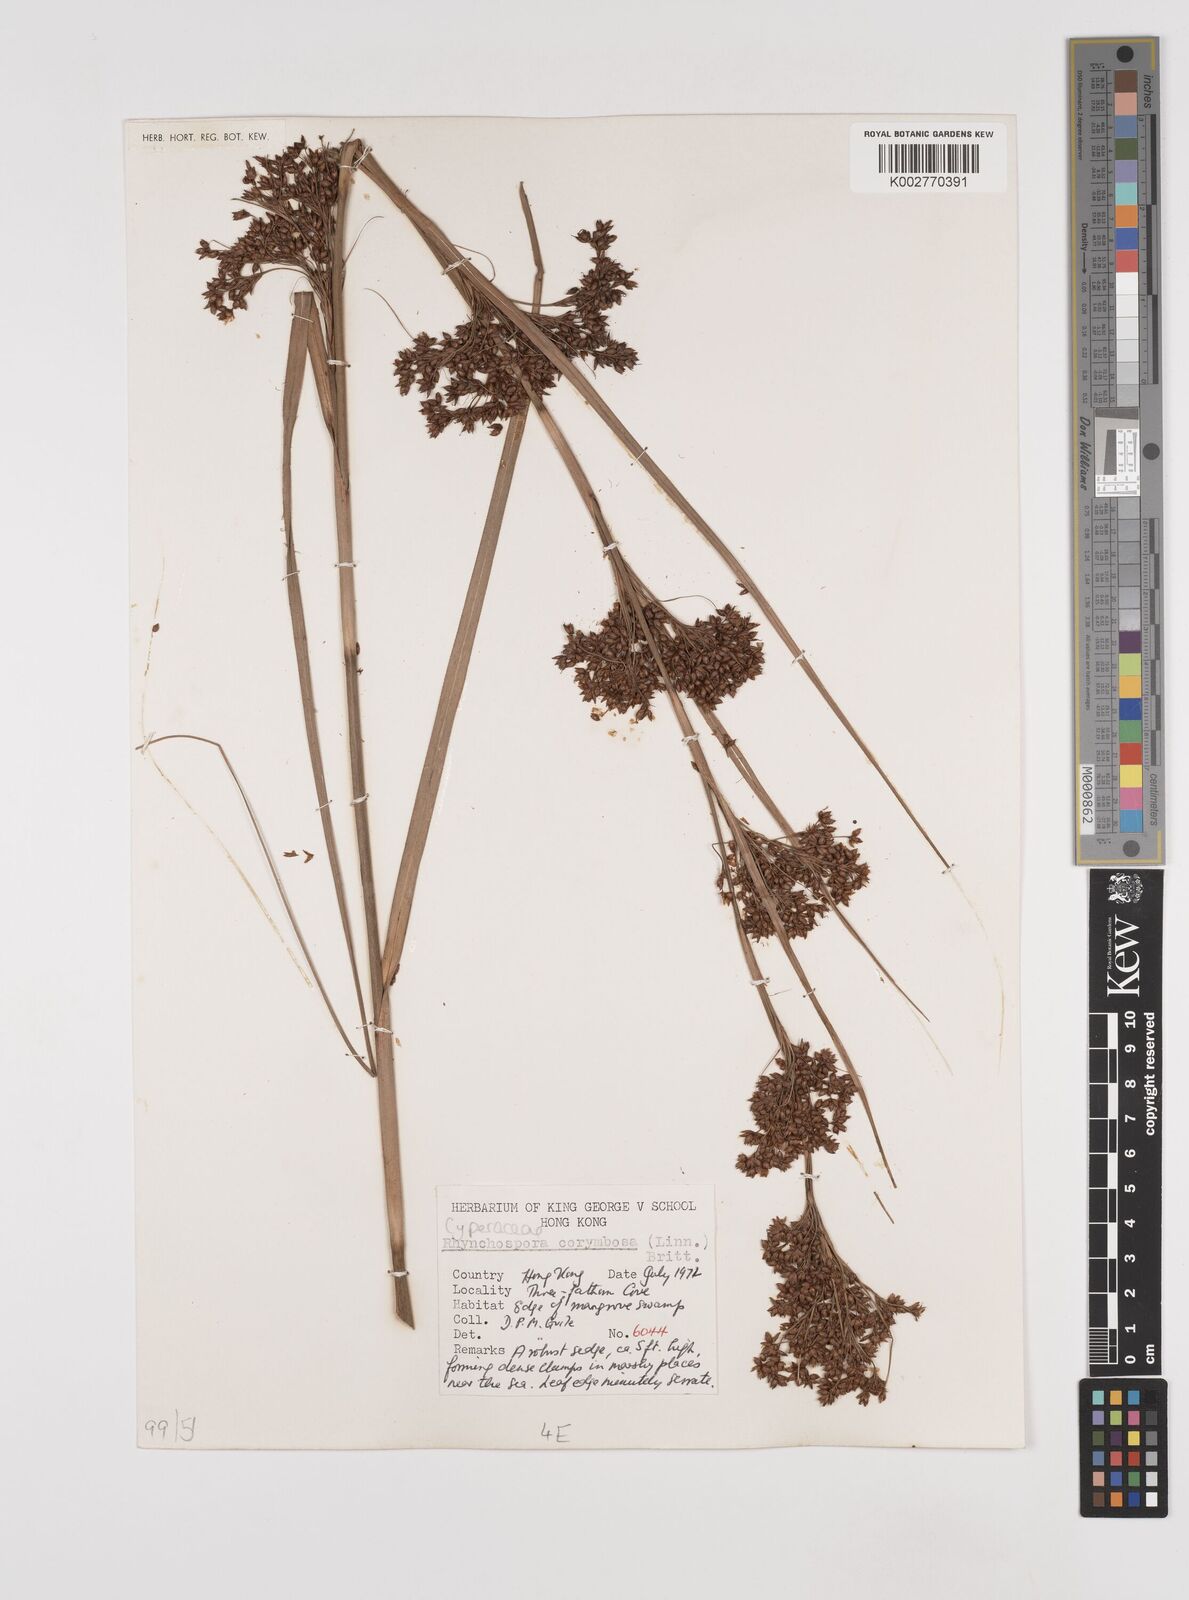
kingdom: Plantae
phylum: Tracheophyta
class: Liliopsida
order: Poales
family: Cyperaceae
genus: Rhynchospora
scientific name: Rhynchospora malasica
